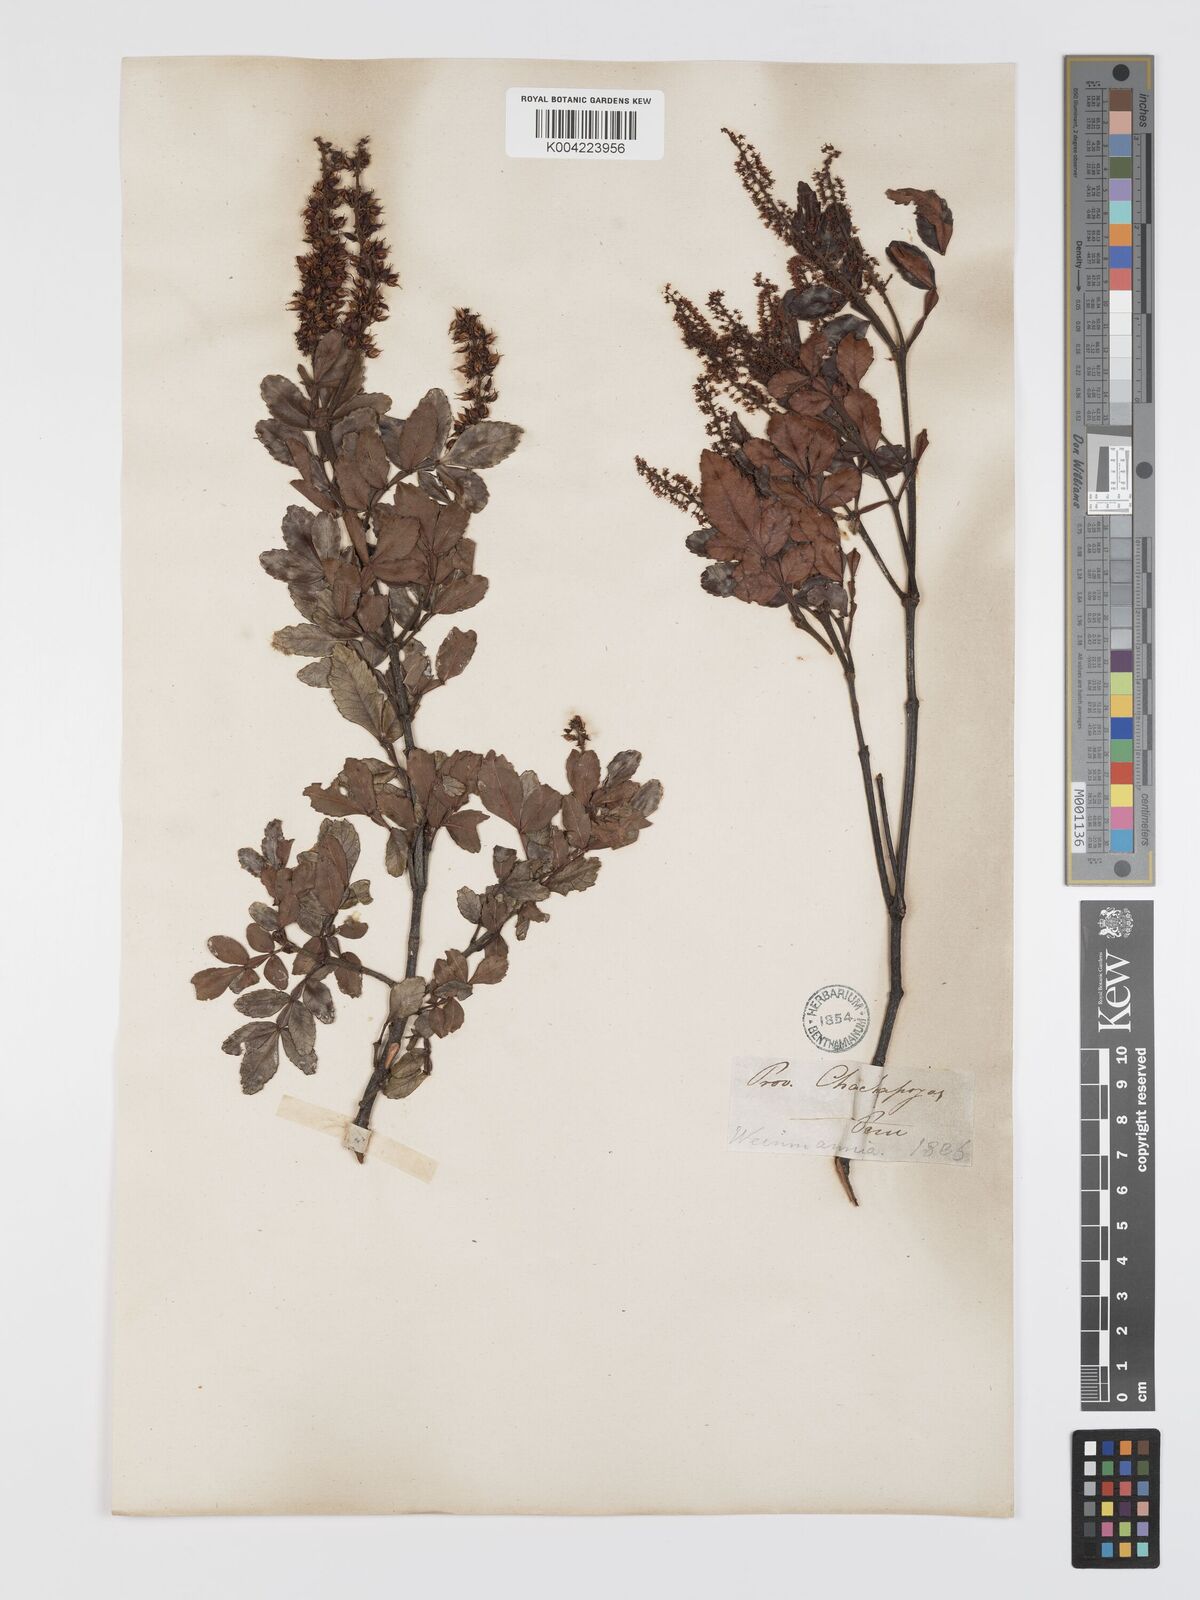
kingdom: Plantae
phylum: Tracheophyta
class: Magnoliopsida
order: Oxalidales
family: Cunoniaceae
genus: Weinmannia
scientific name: Weinmannia rhoifolia
